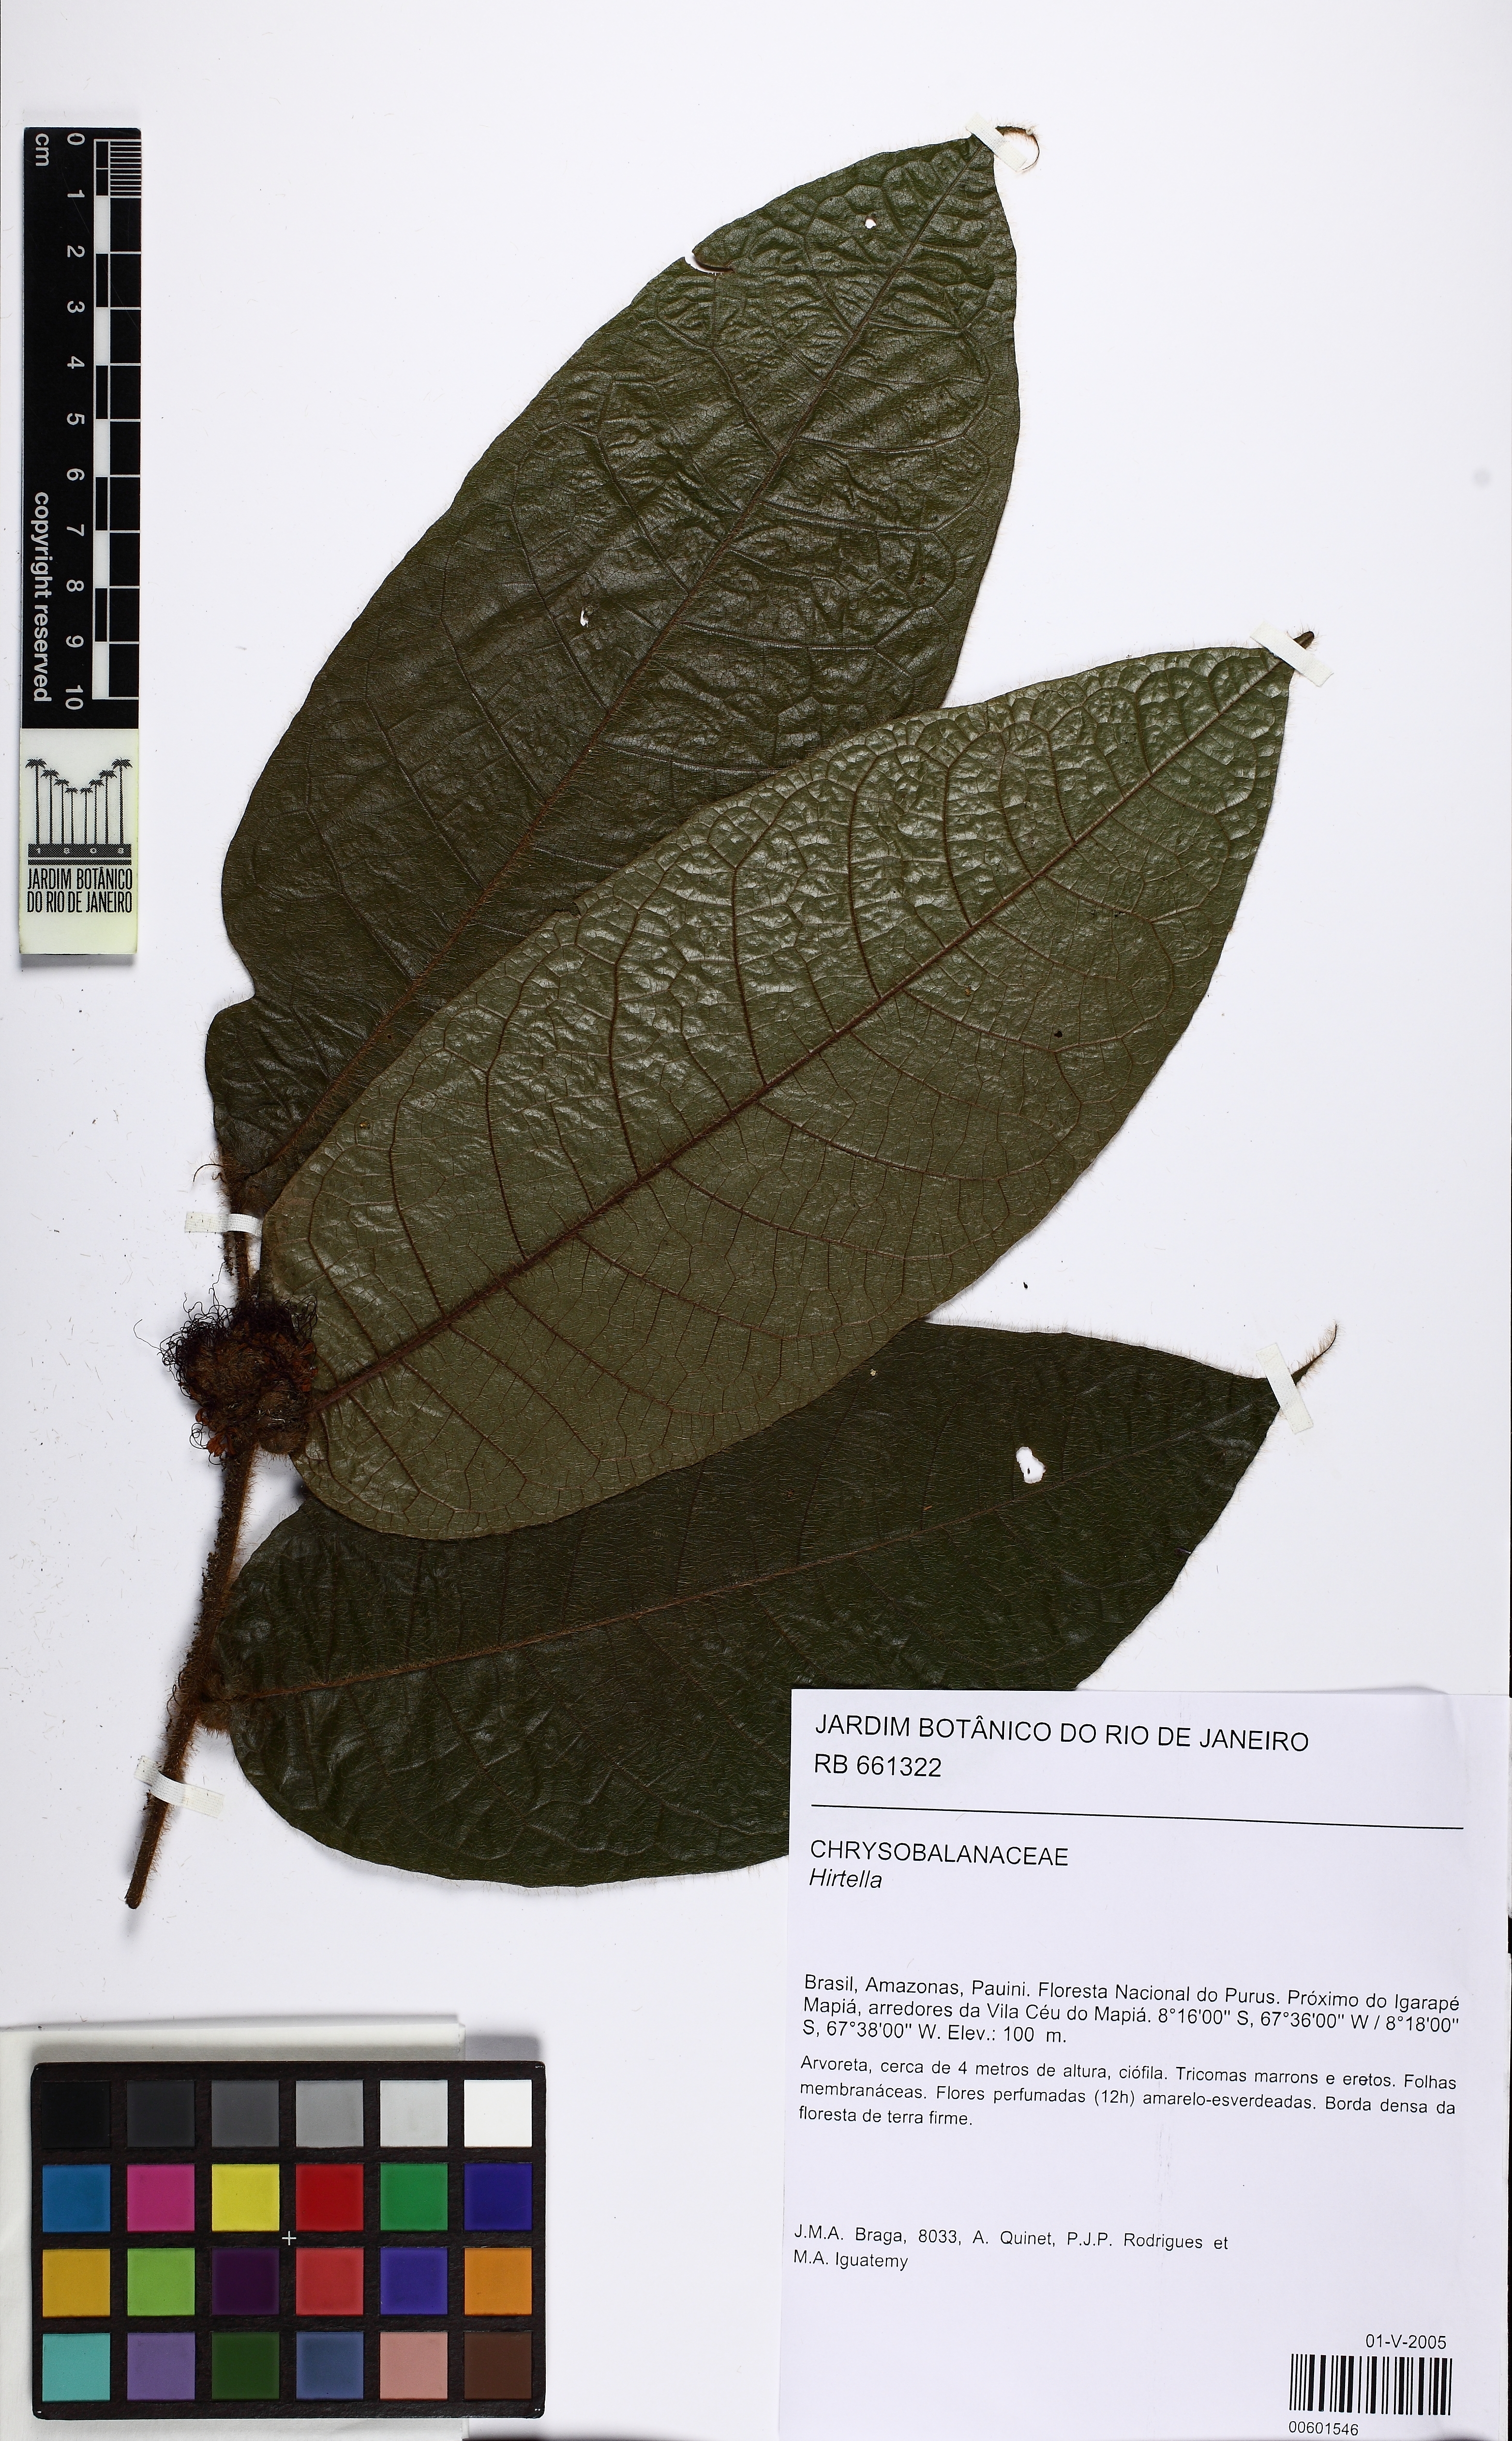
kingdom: Plantae
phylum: Tracheophyta
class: Magnoliopsida
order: Malpighiales
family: Chrysobalanaceae
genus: Hirtella
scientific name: Hirtella physophora
